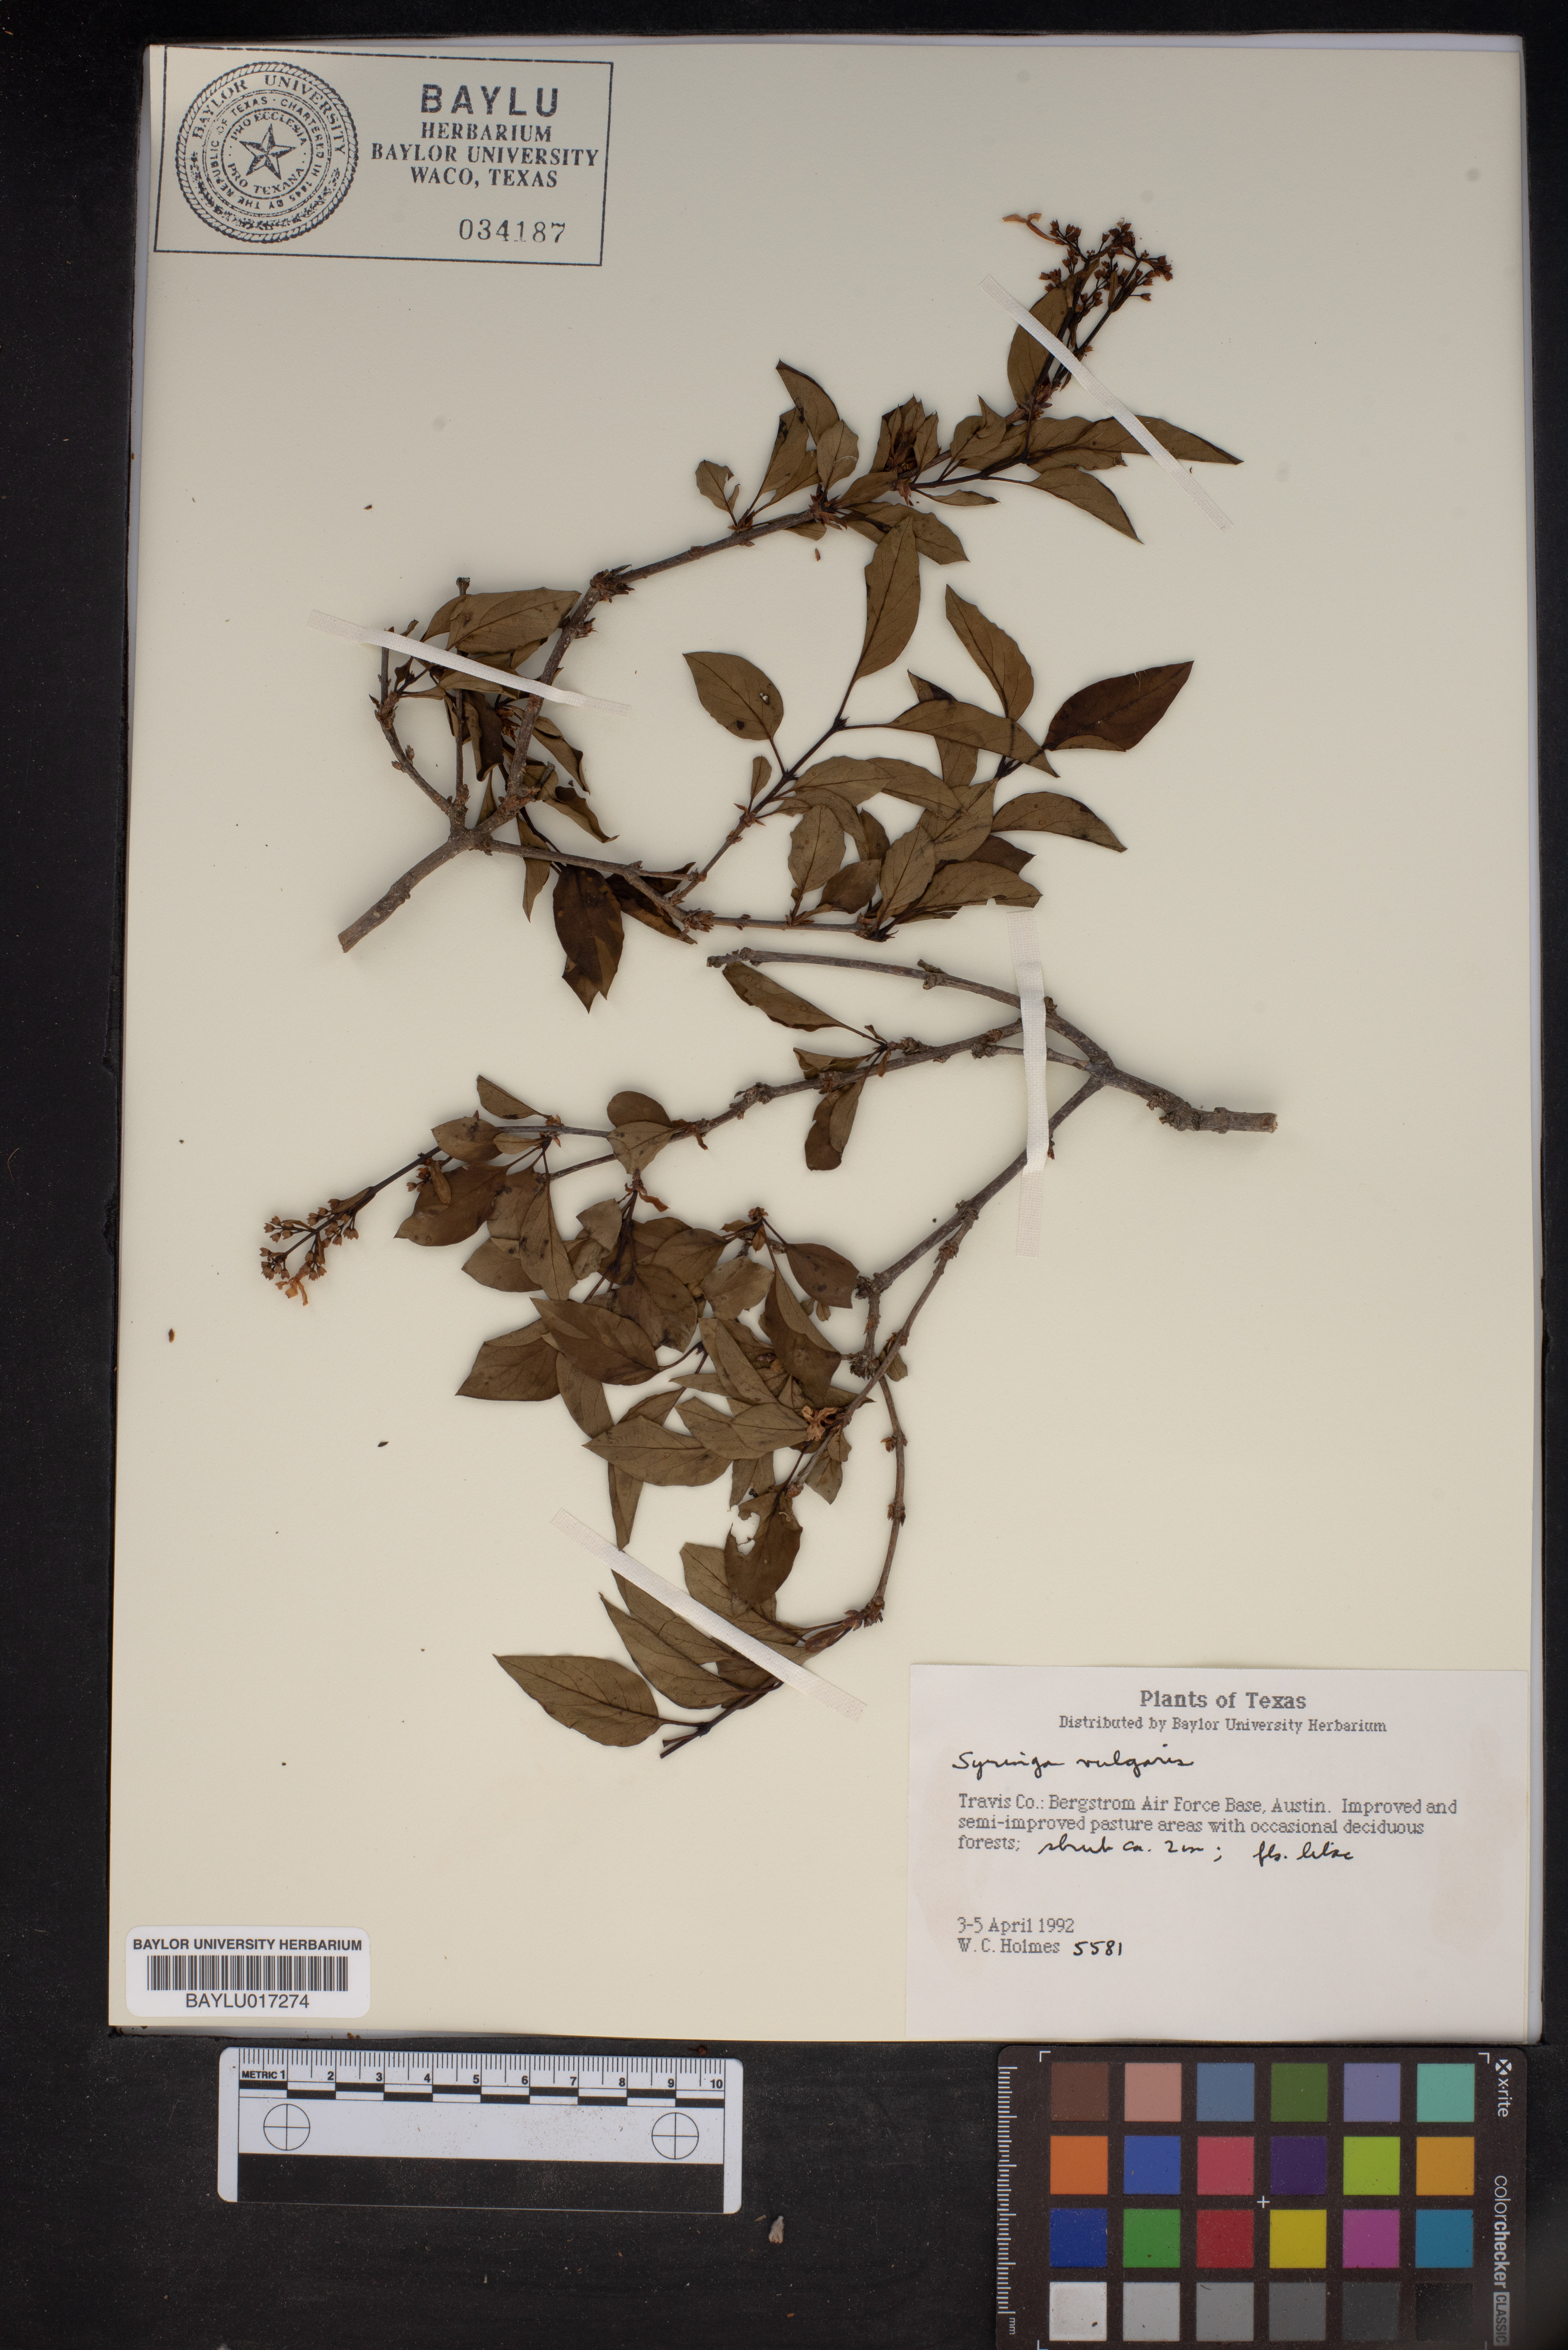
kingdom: Plantae
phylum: Tracheophyta
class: Magnoliopsida
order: Lamiales
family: Oleaceae
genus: Syringa
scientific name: Syringa vulgaris
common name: Common lilac
